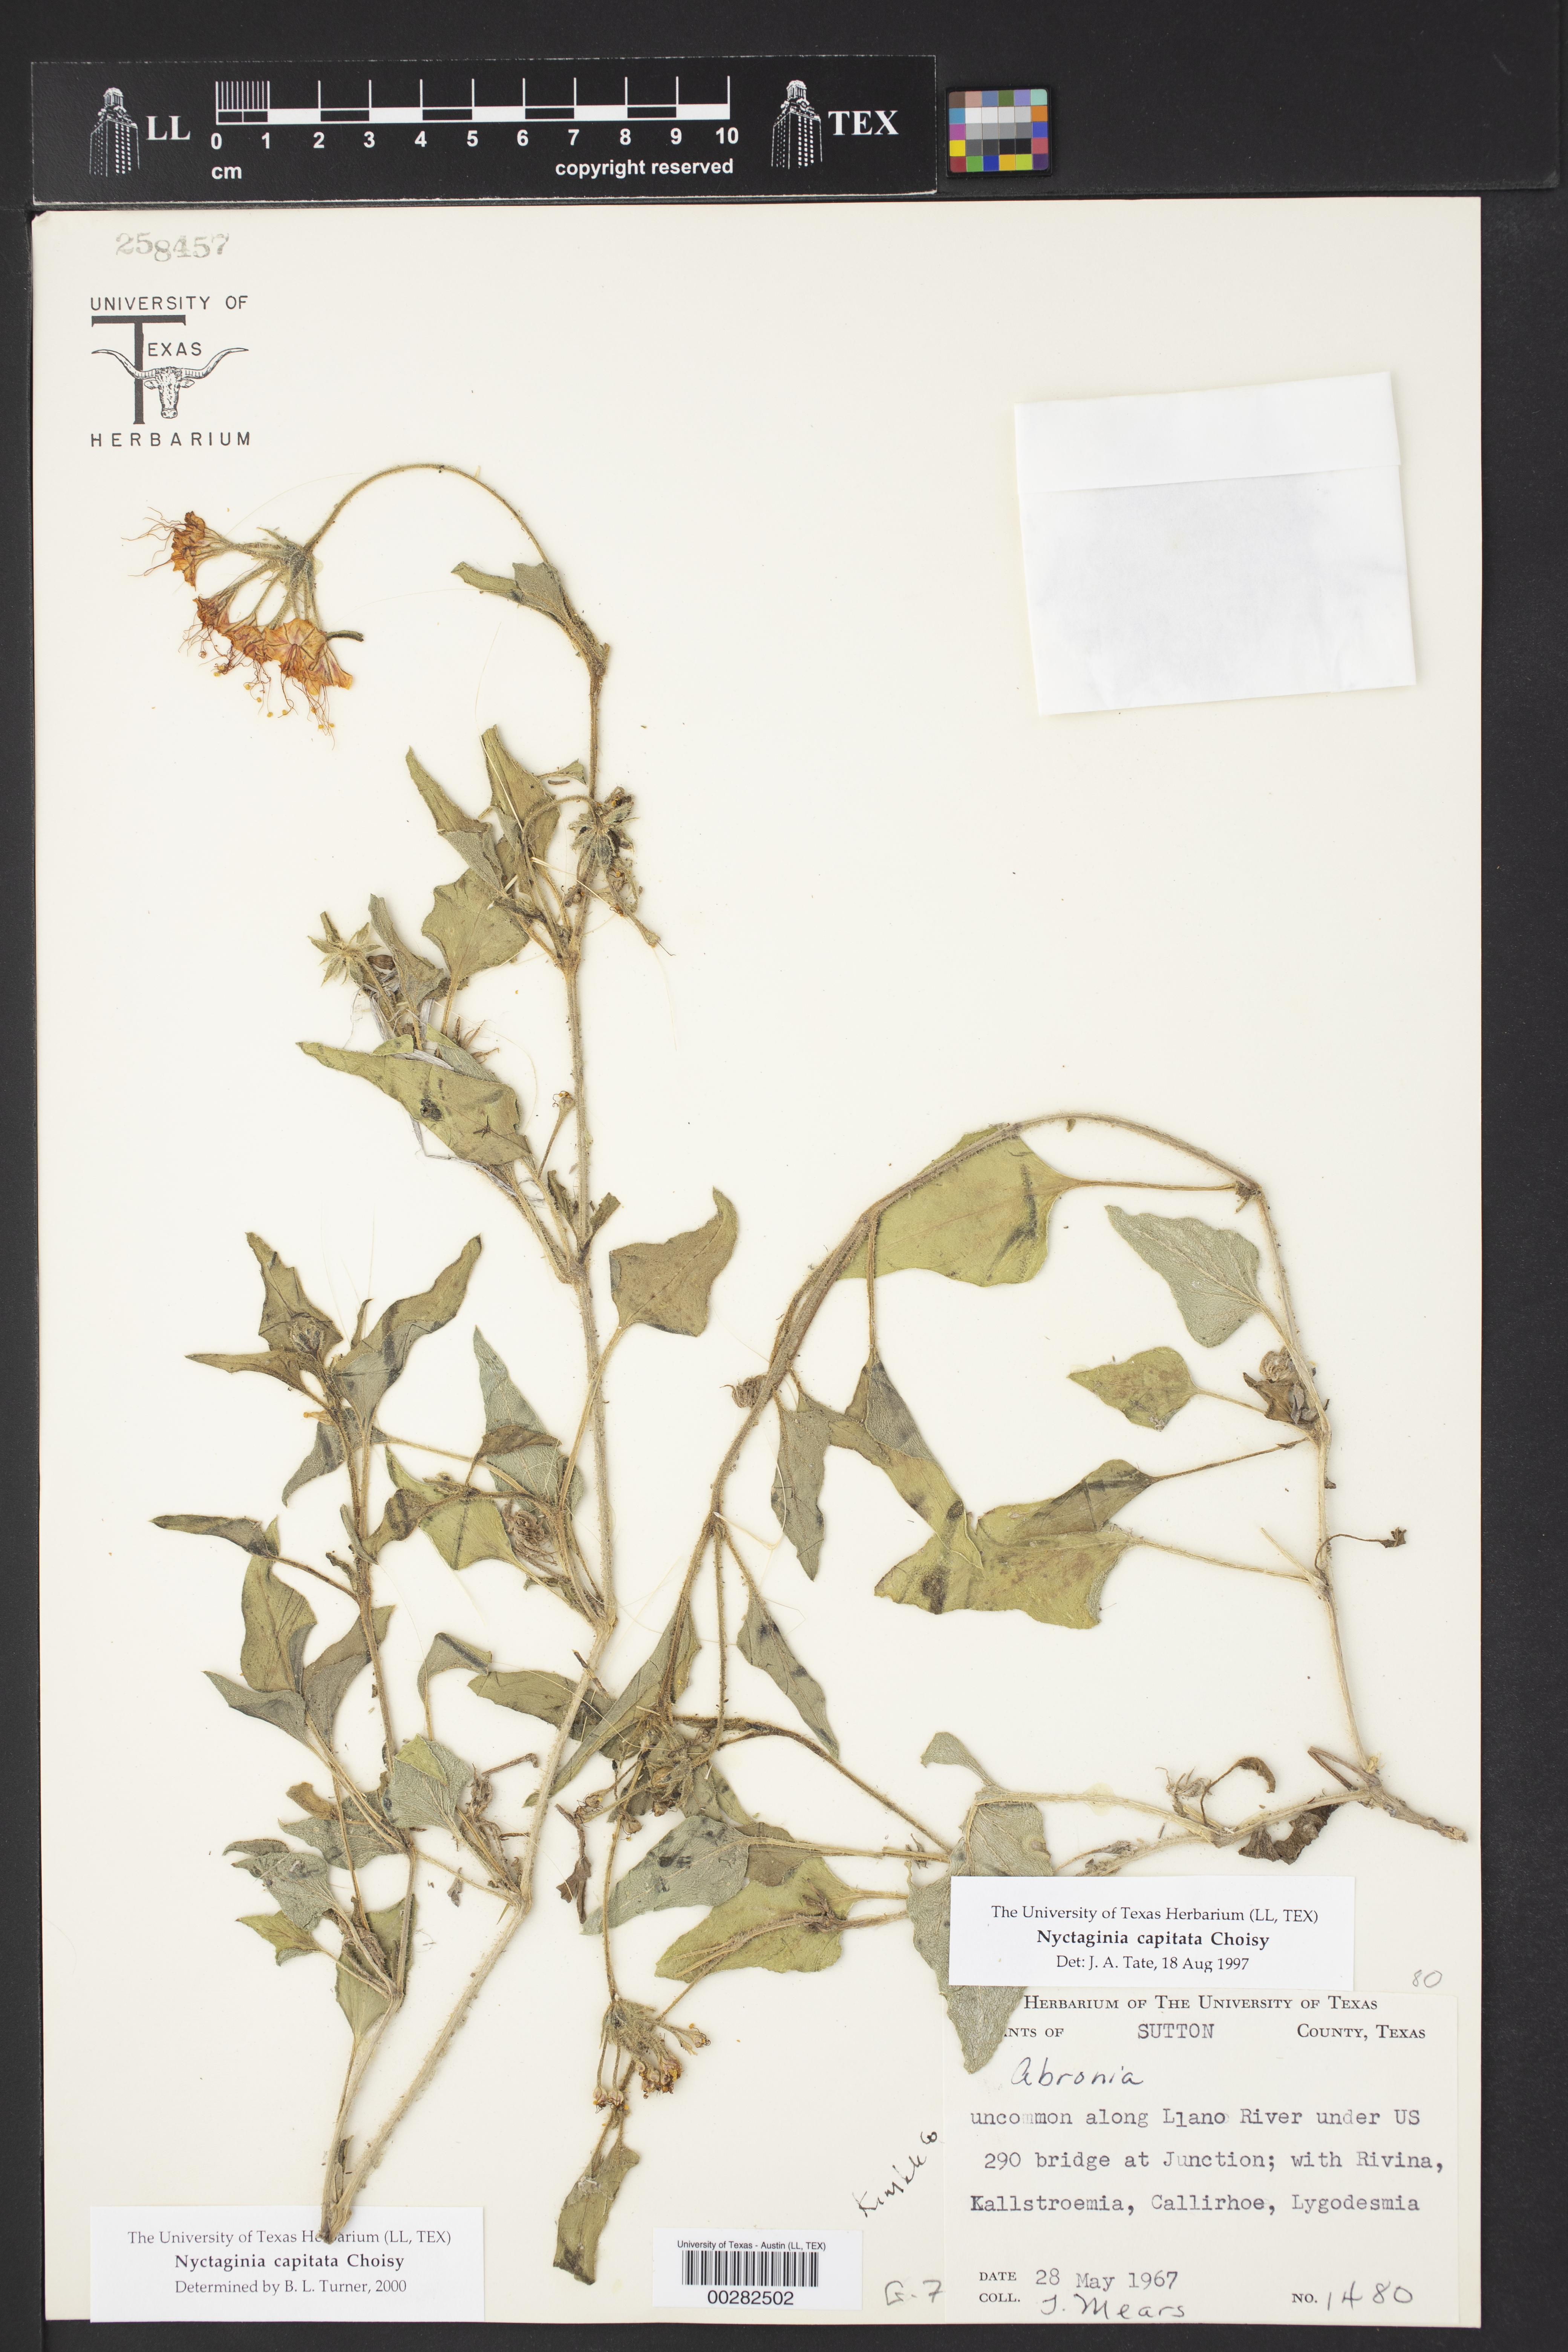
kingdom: Plantae
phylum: Tracheophyta
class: Magnoliopsida
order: Caryophyllales
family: Nyctaginaceae
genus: Nyctaginia
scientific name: Nyctaginia capitata
